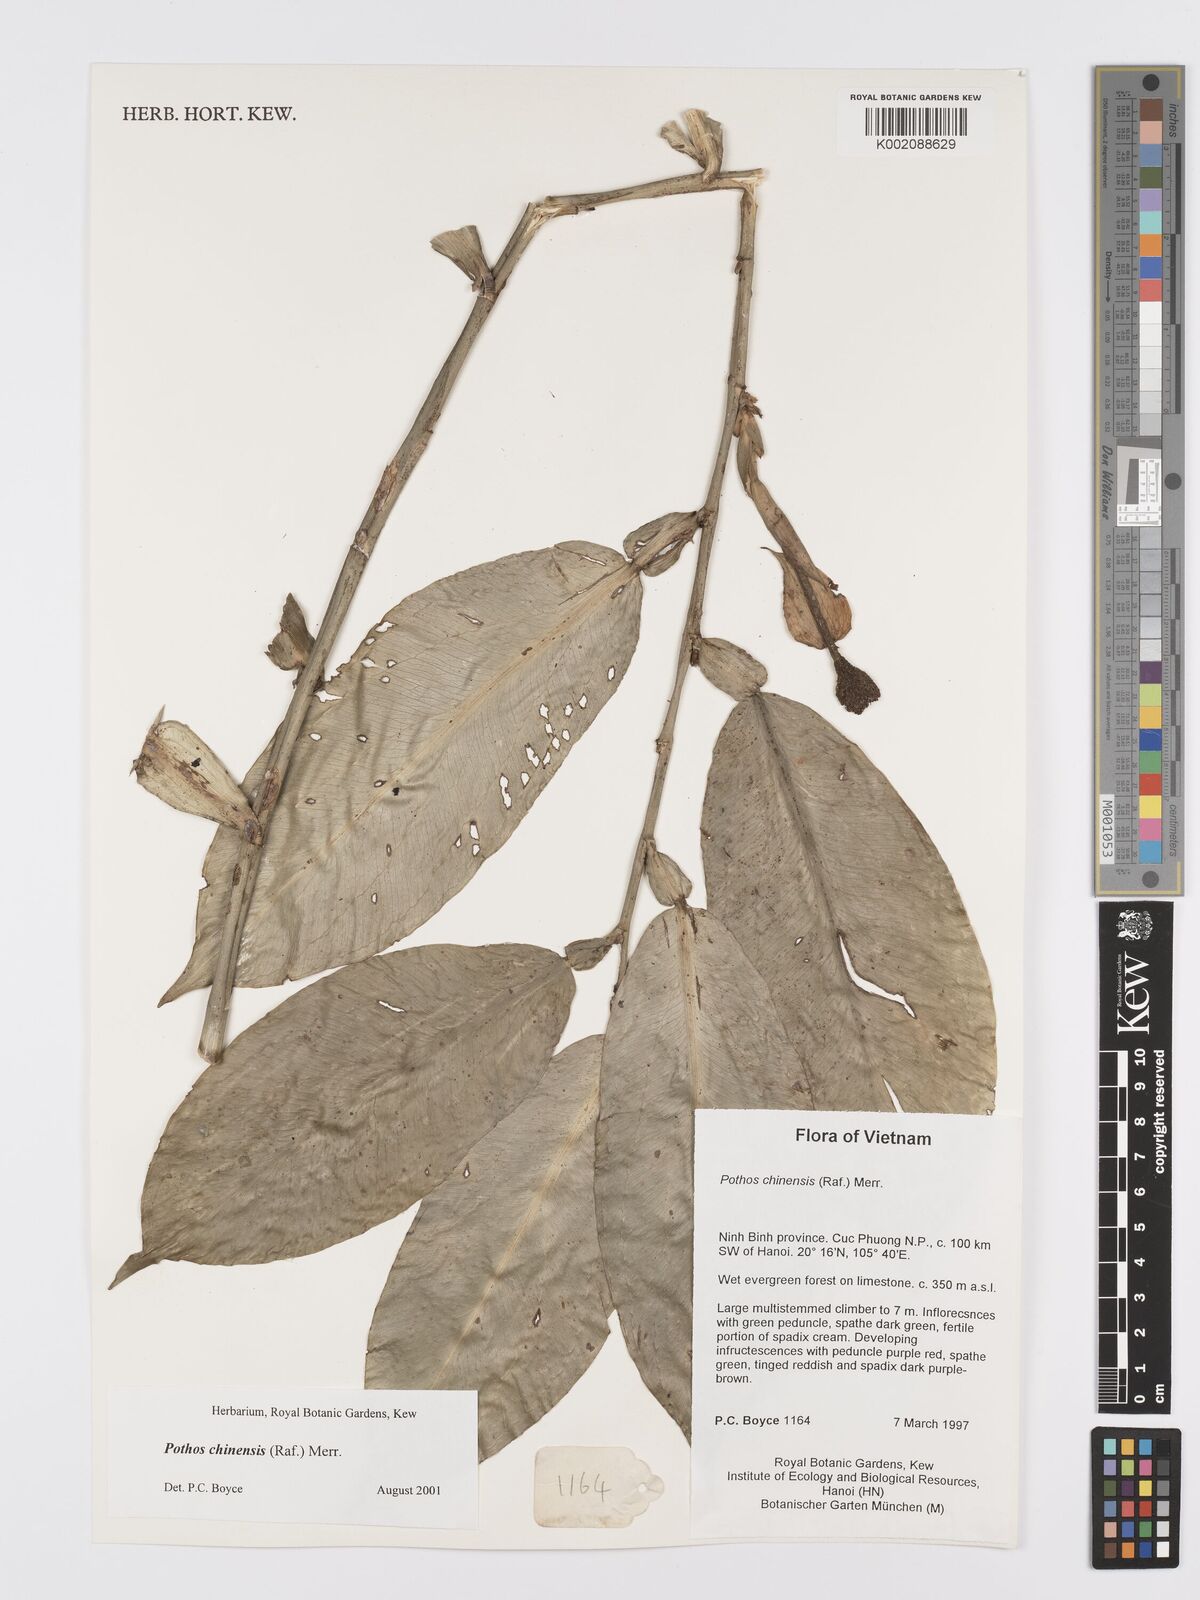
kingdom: Plantae
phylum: Tracheophyta
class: Liliopsida
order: Alismatales
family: Araceae
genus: Pothos
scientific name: Pothos chinensis
